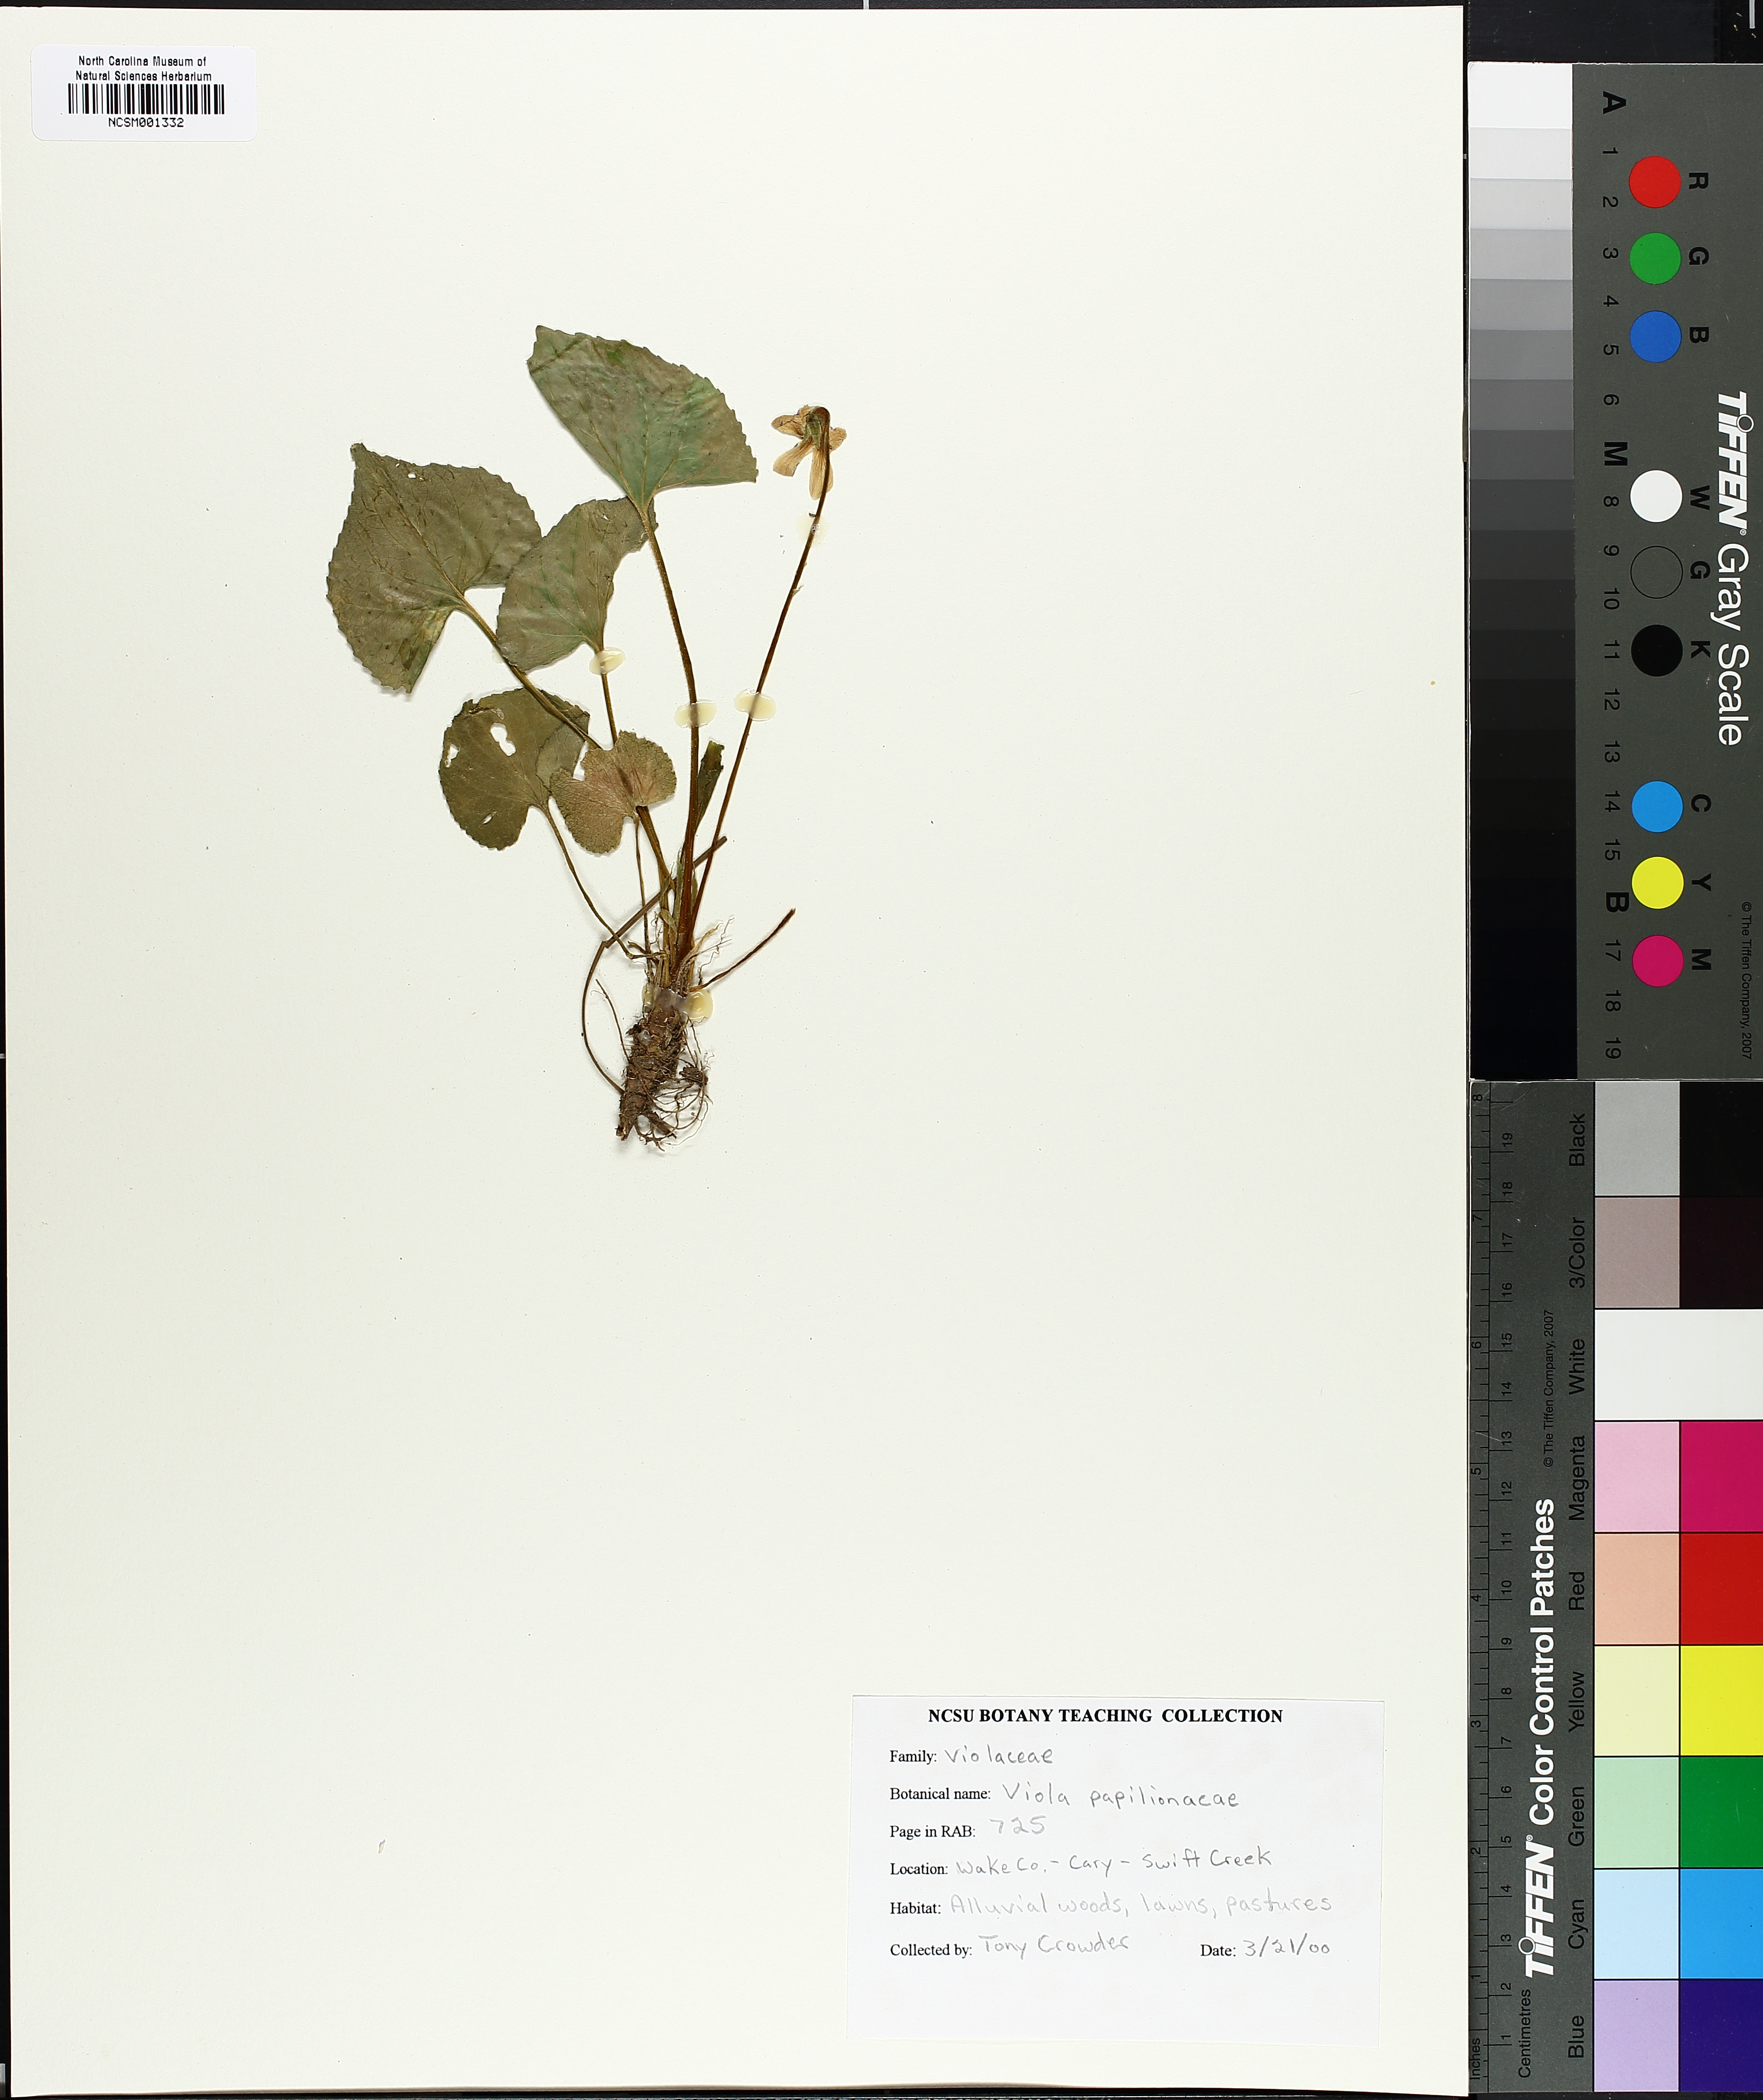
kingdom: Plantae
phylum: Tracheophyta
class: Magnoliopsida
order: Malpighiales
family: Violaceae
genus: Viola
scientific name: Viola sororia
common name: Dooryard violet
